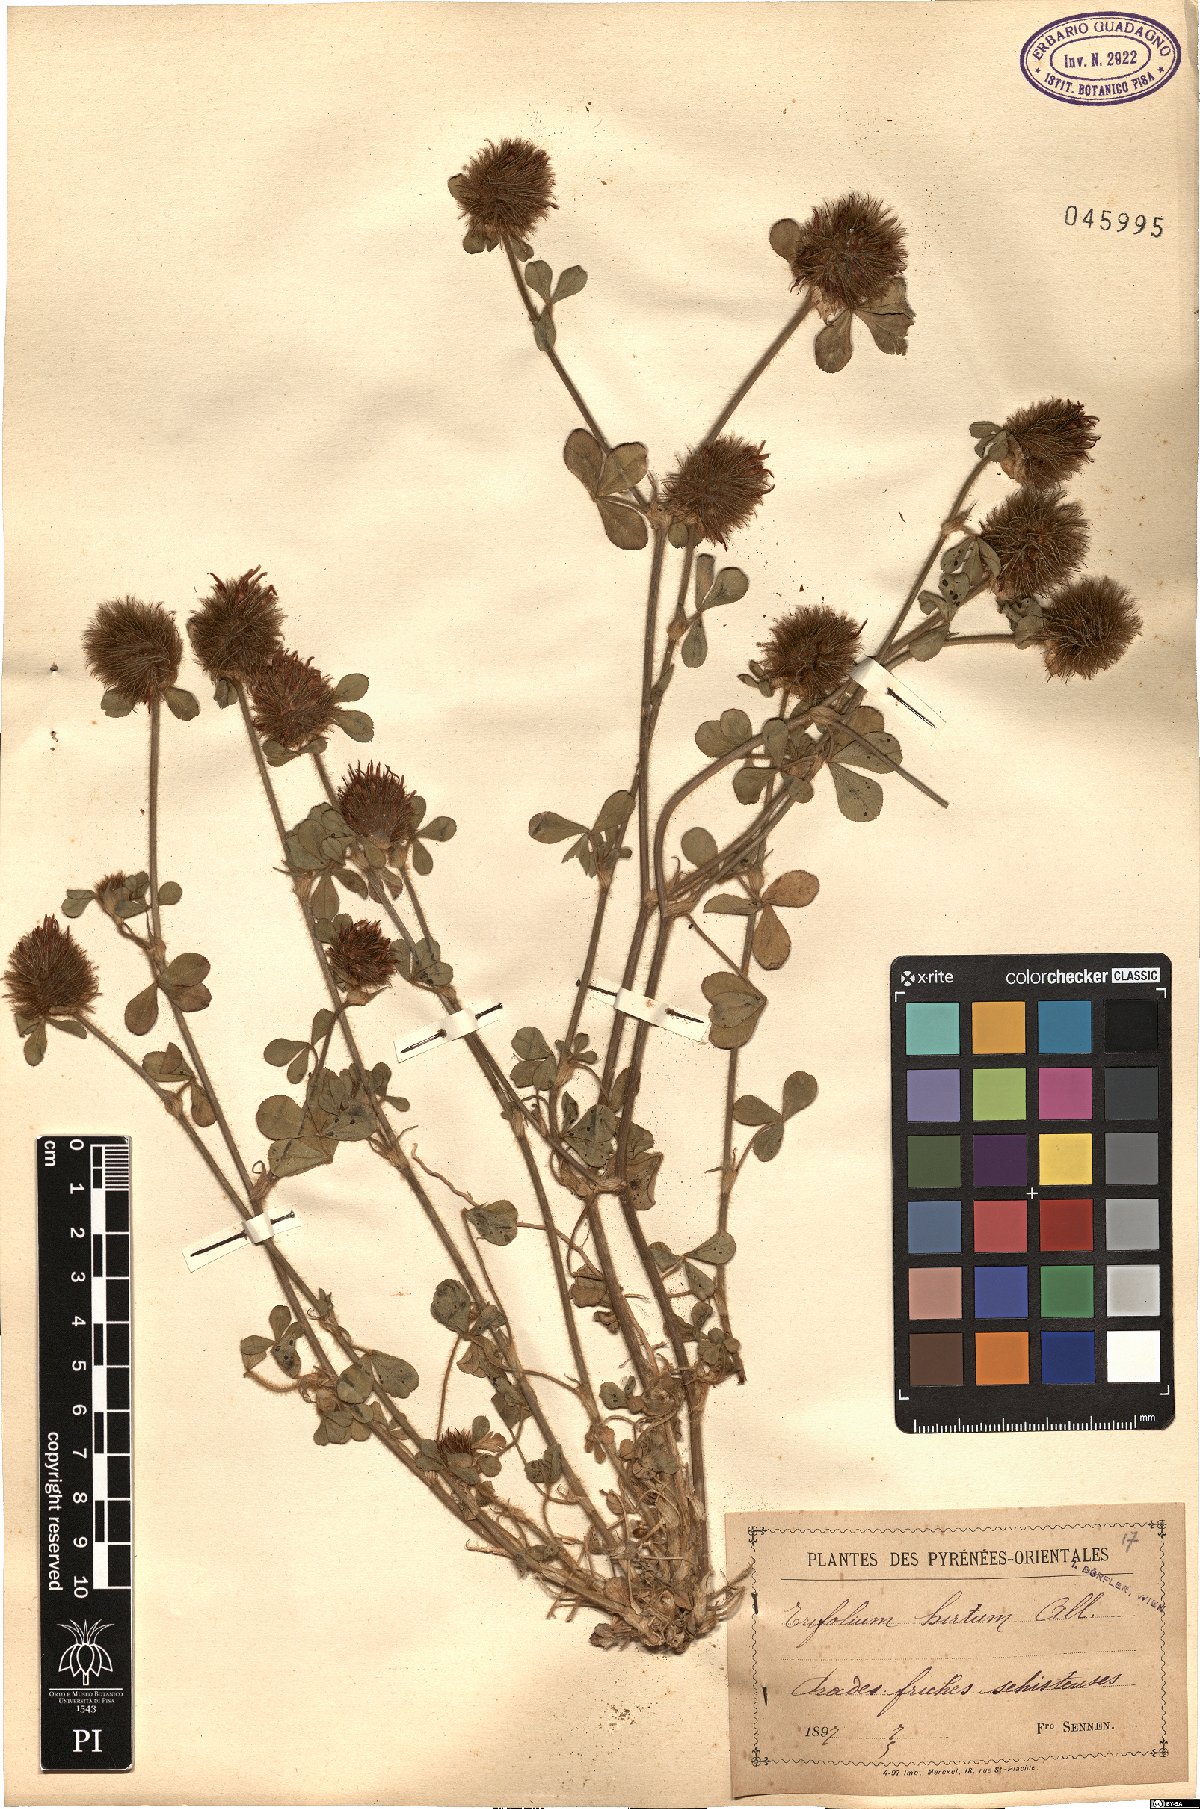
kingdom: Plantae
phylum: Tracheophyta
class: Magnoliopsida
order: Fabales
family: Fabaceae
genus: Trifolium
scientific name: Trifolium hirtum
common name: Rose clover
